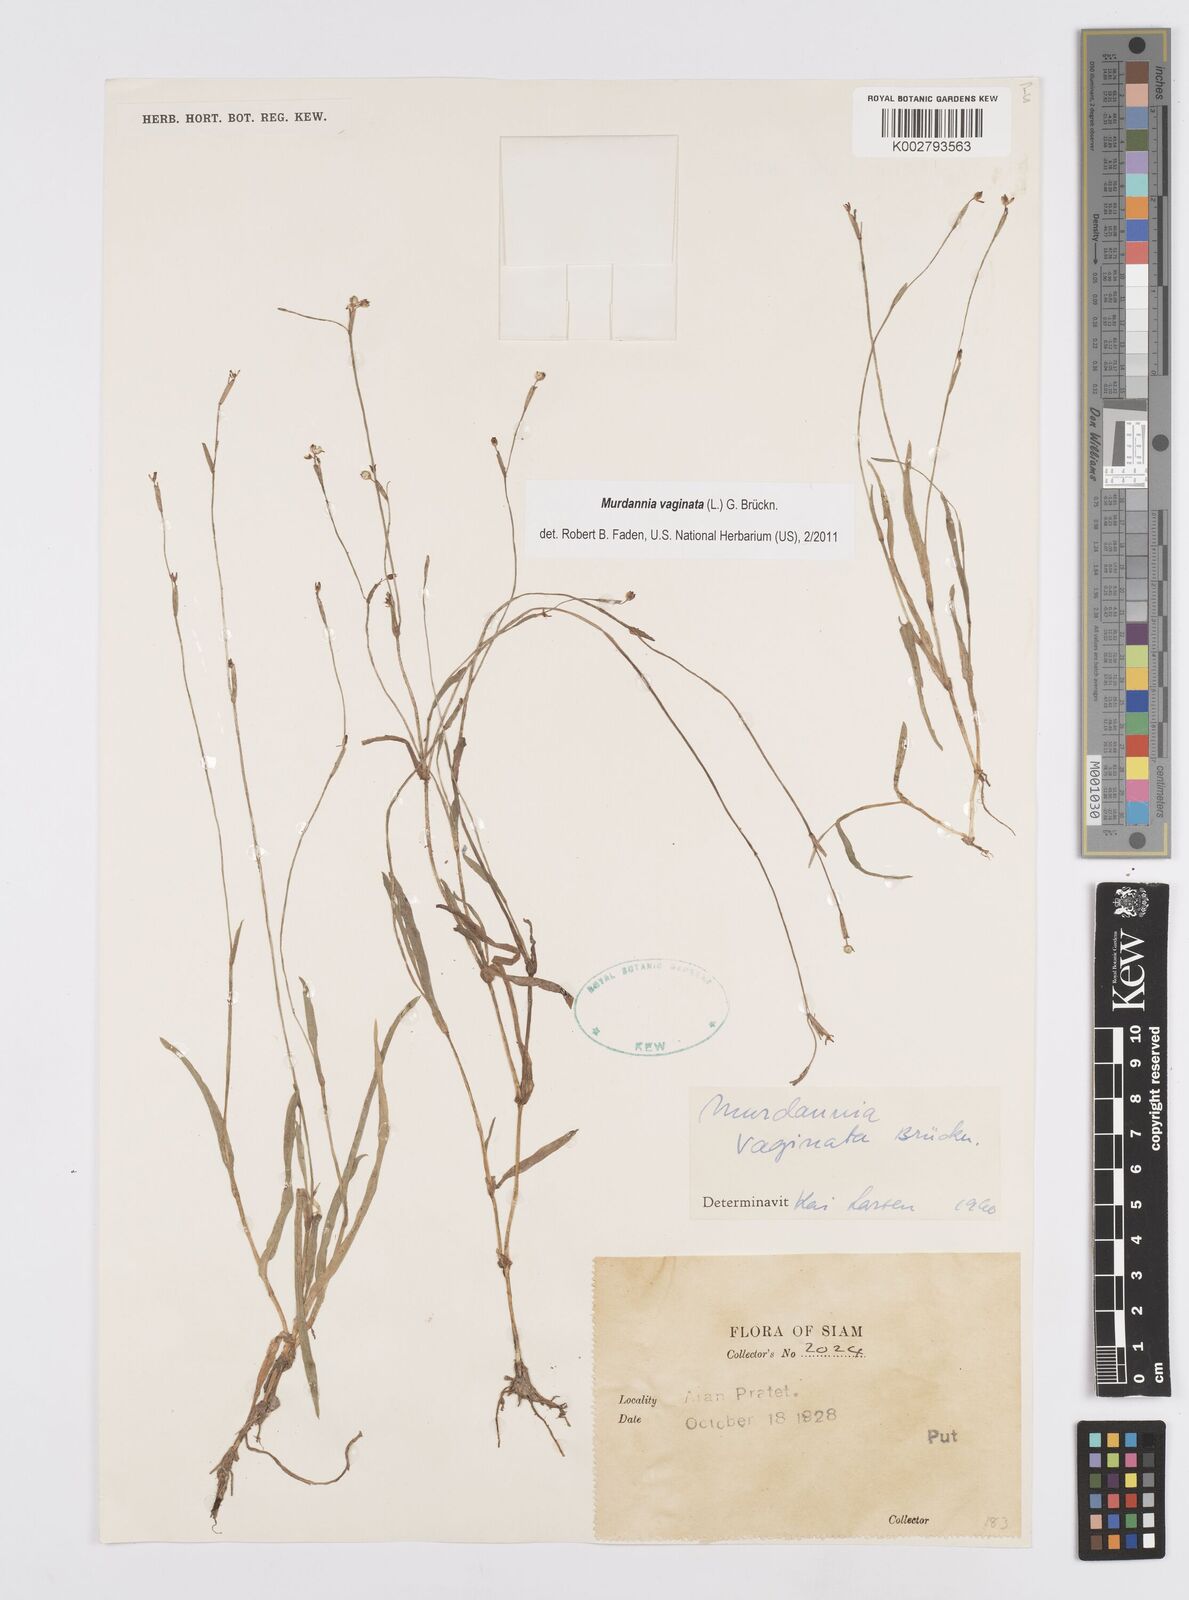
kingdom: Plantae
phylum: Tracheophyta
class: Liliopsida
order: Commelinales
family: Commelinaceae
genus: Murdannia
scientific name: Murdannia vaginata
